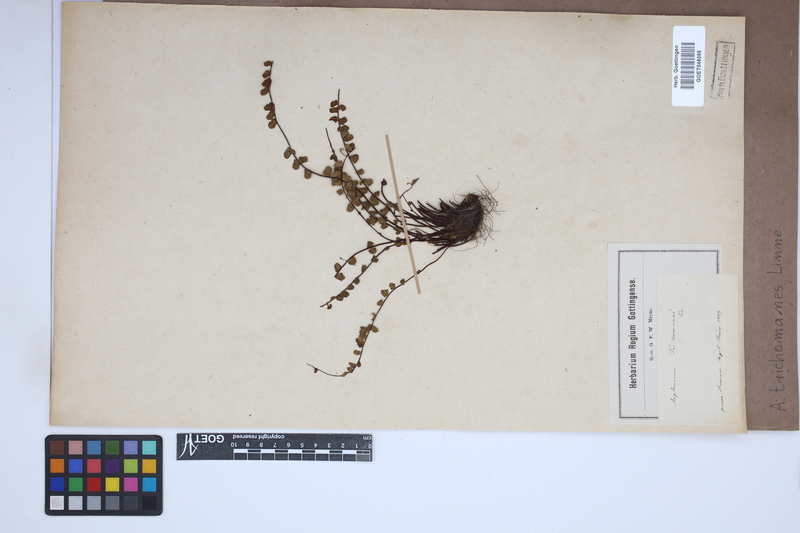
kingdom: Plantae
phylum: Tracheophyta
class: Polypodiopsida
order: Polypodiales
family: Aspleniaceae
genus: Asplenium
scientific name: Asplenium trichomanes
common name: Maidenhair spleenwort
